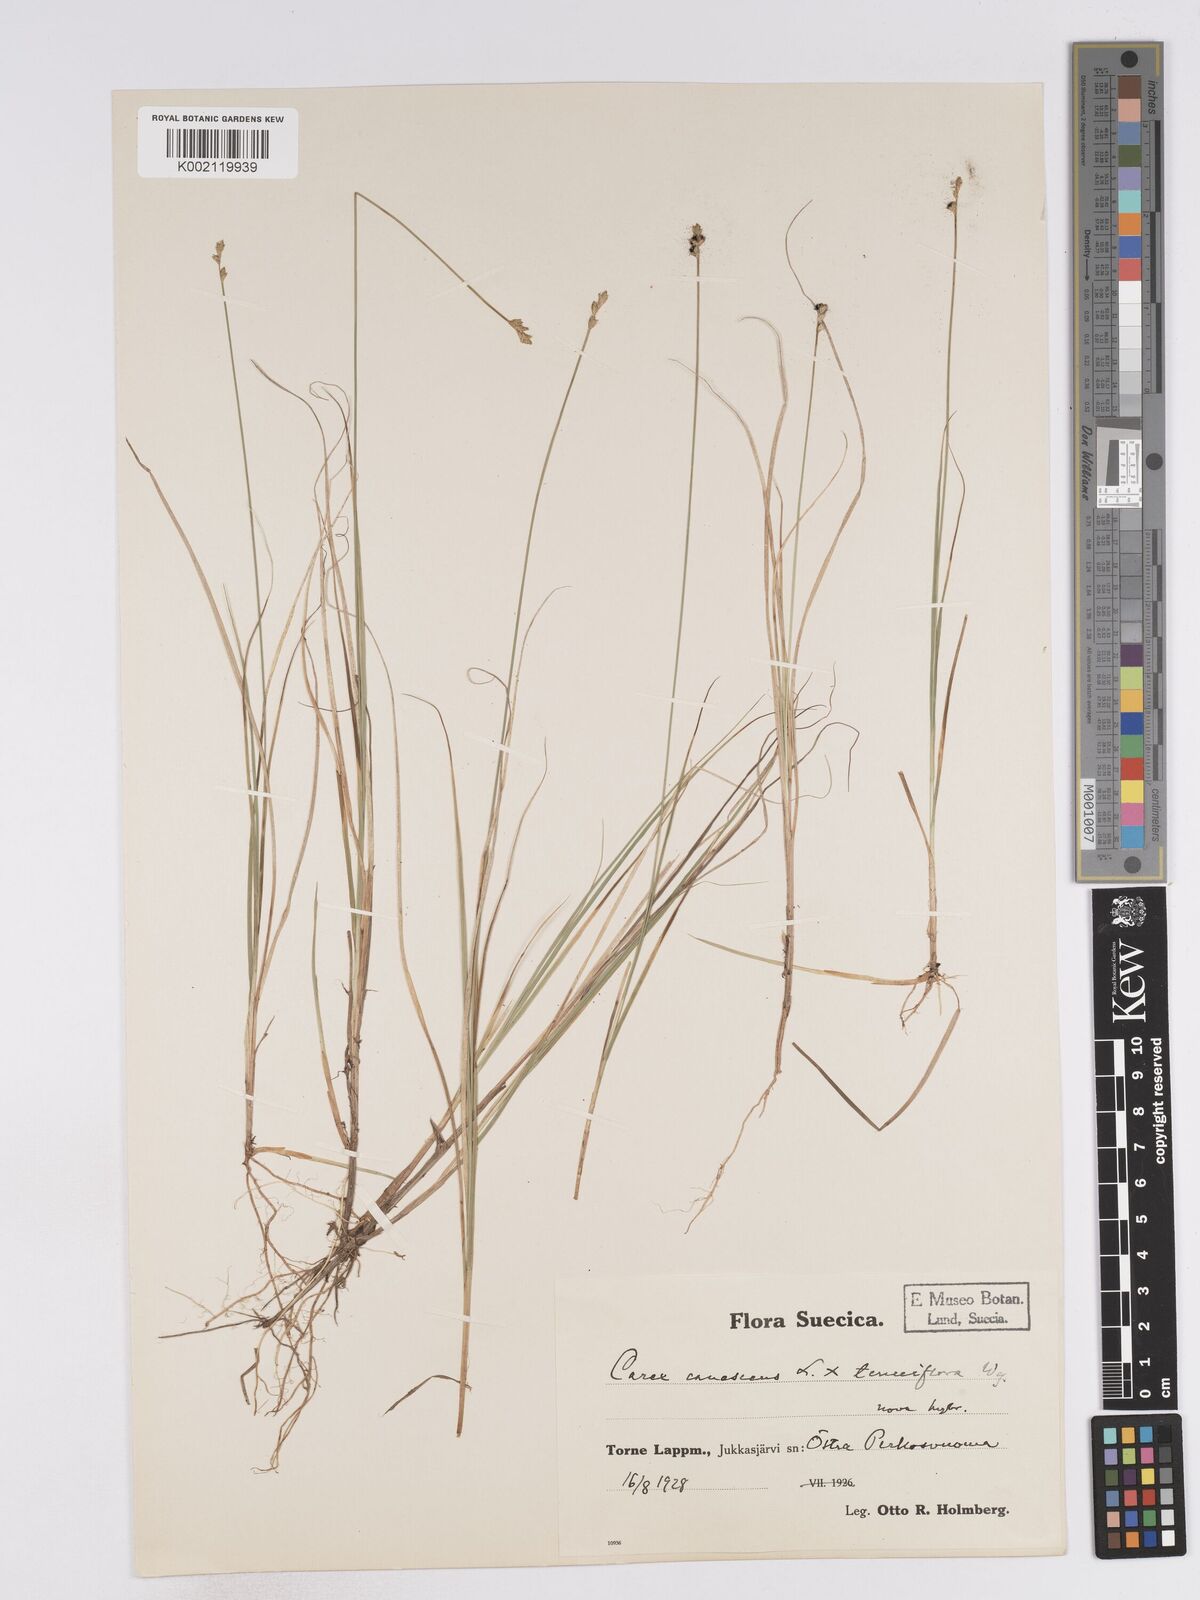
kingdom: Plantae
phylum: Tracheophyta
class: Liliopsida
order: Poales
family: Cyperaceae
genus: Carex
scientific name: Carex curta
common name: White sedge
